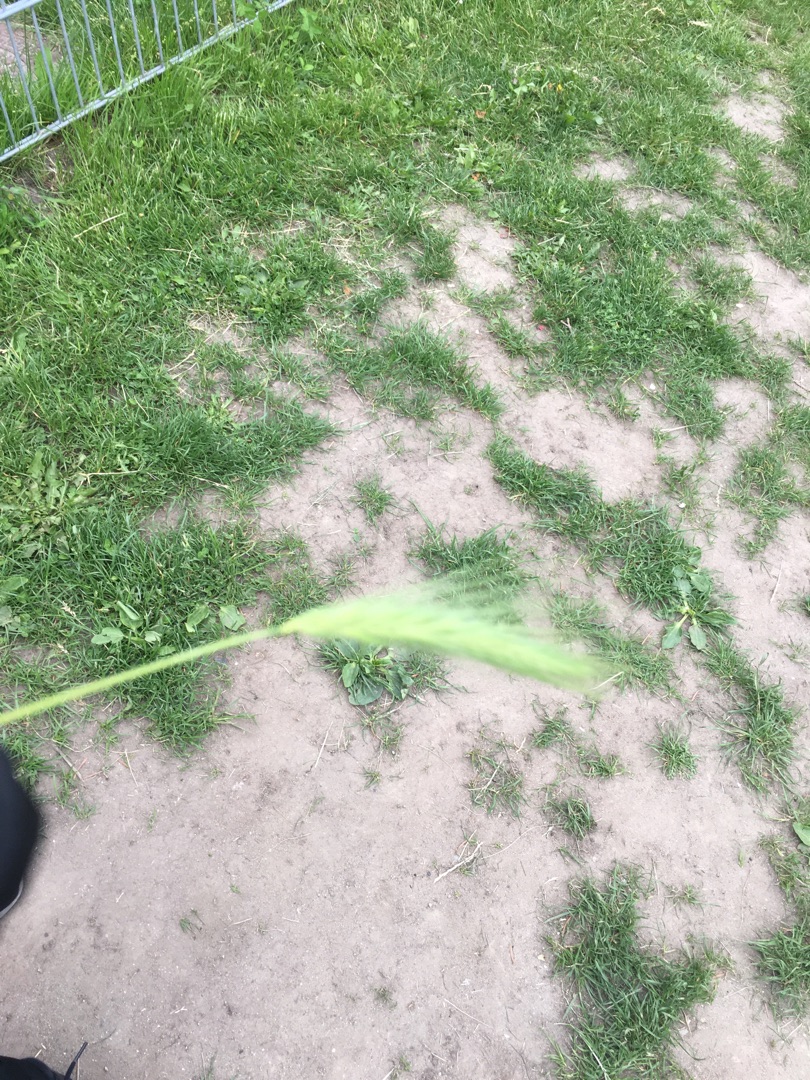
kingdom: Plantae
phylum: Tracheophyta
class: Liliopsida
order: Poales
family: Poaceae
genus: Hordeum
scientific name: Hordeum murinum
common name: Gold byg
